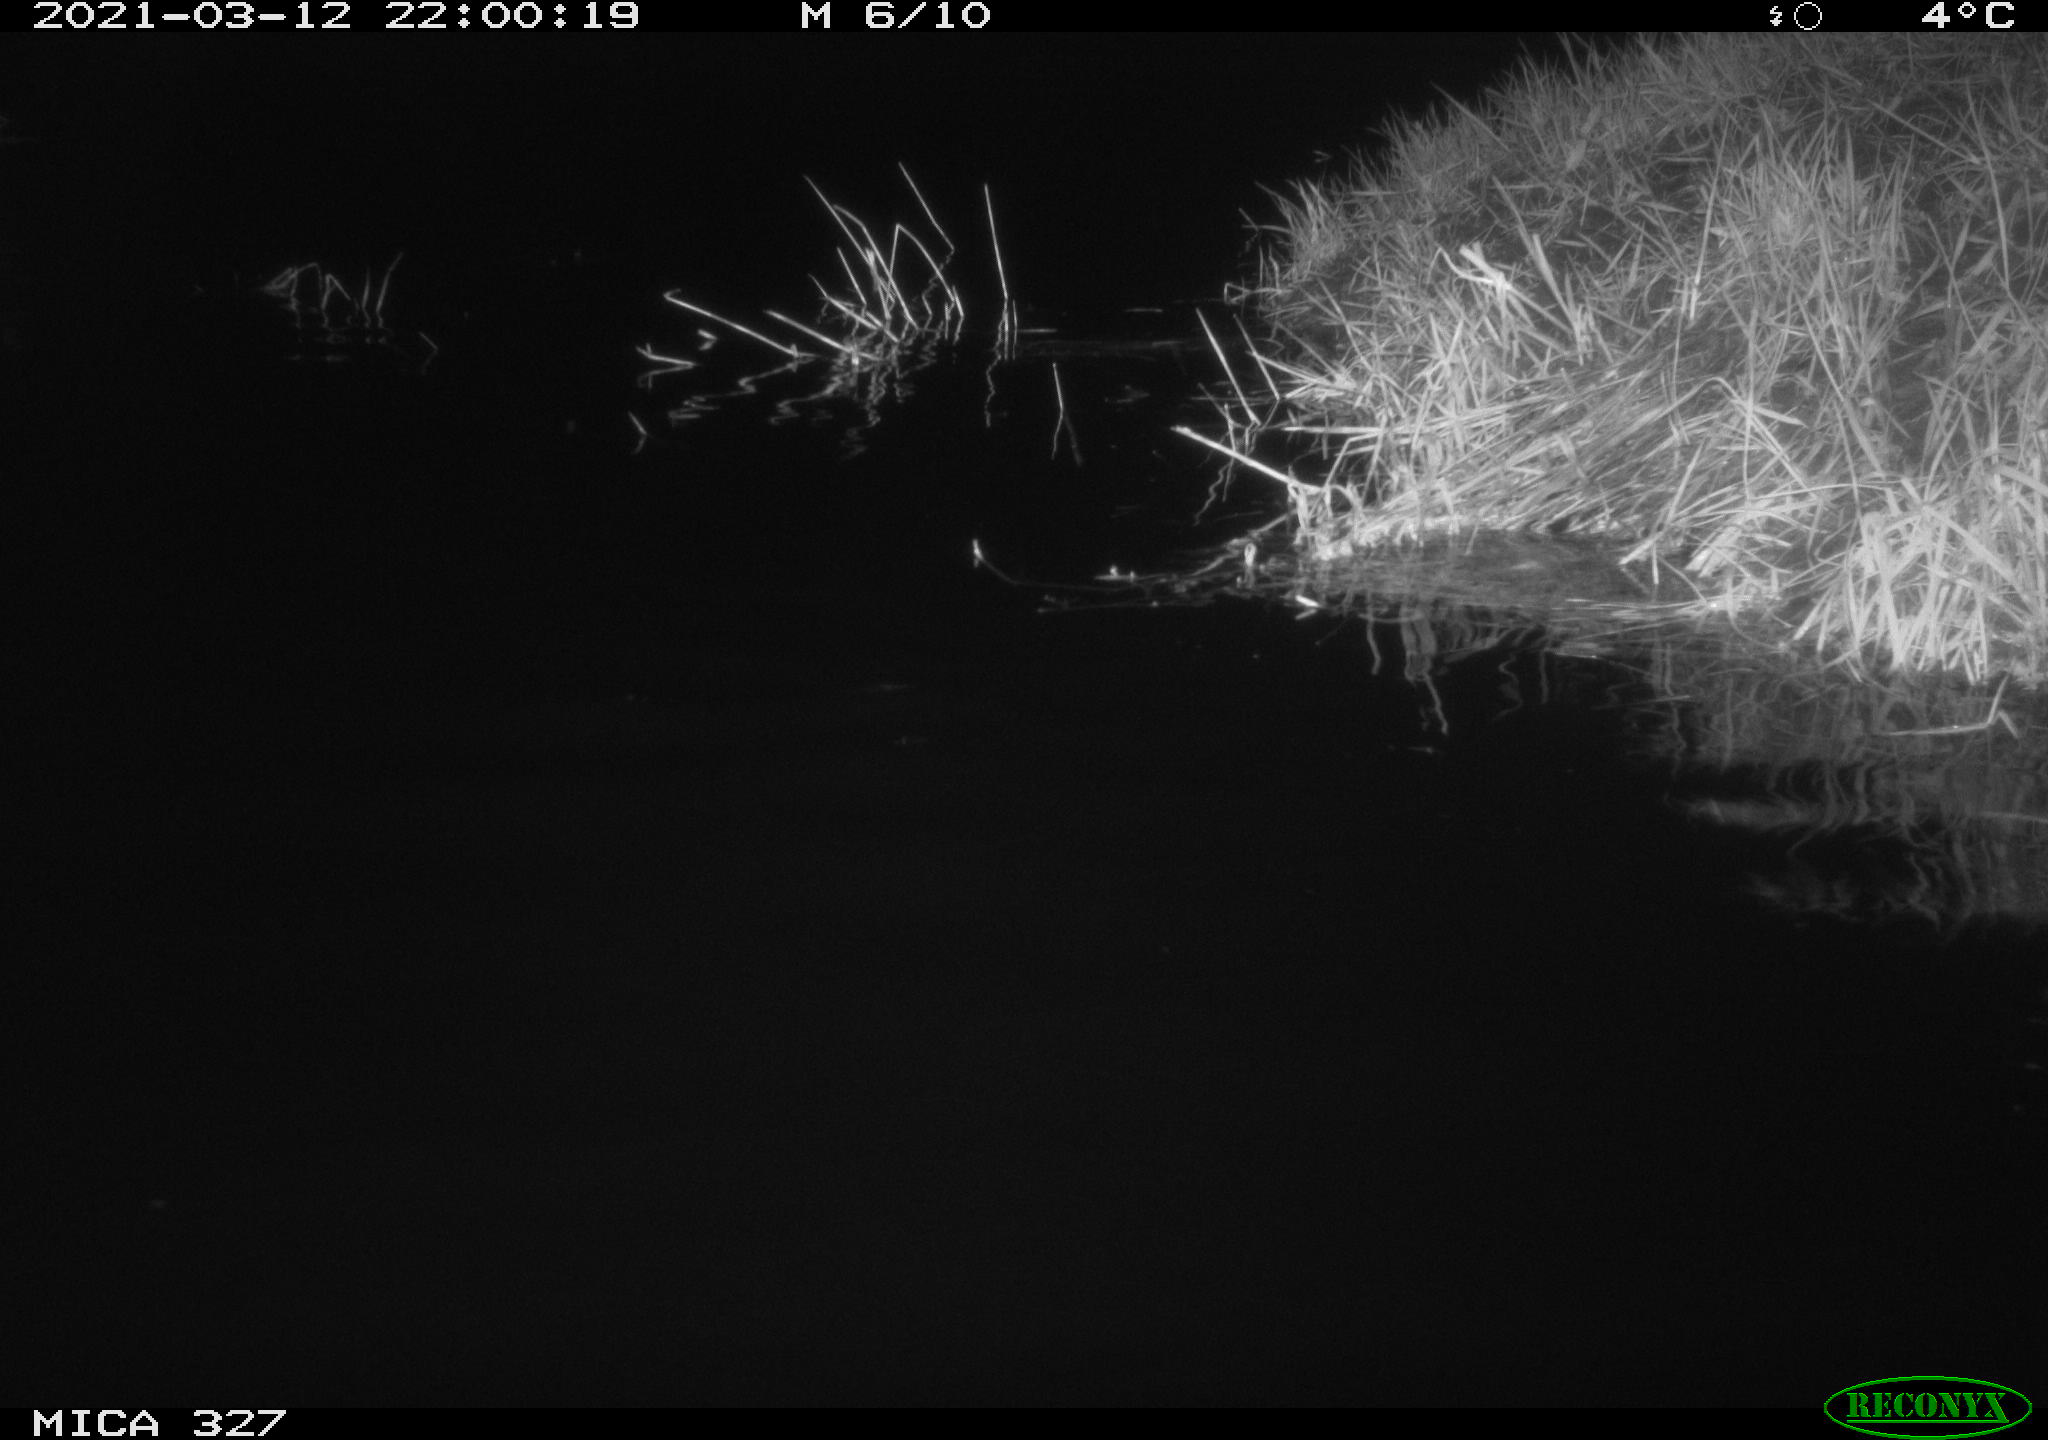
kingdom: Animalia
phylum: Chordata
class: Mammalia
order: Rodentia
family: Cricetidae
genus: Ondatra
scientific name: Ondatra zibethicus
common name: Muskrat
